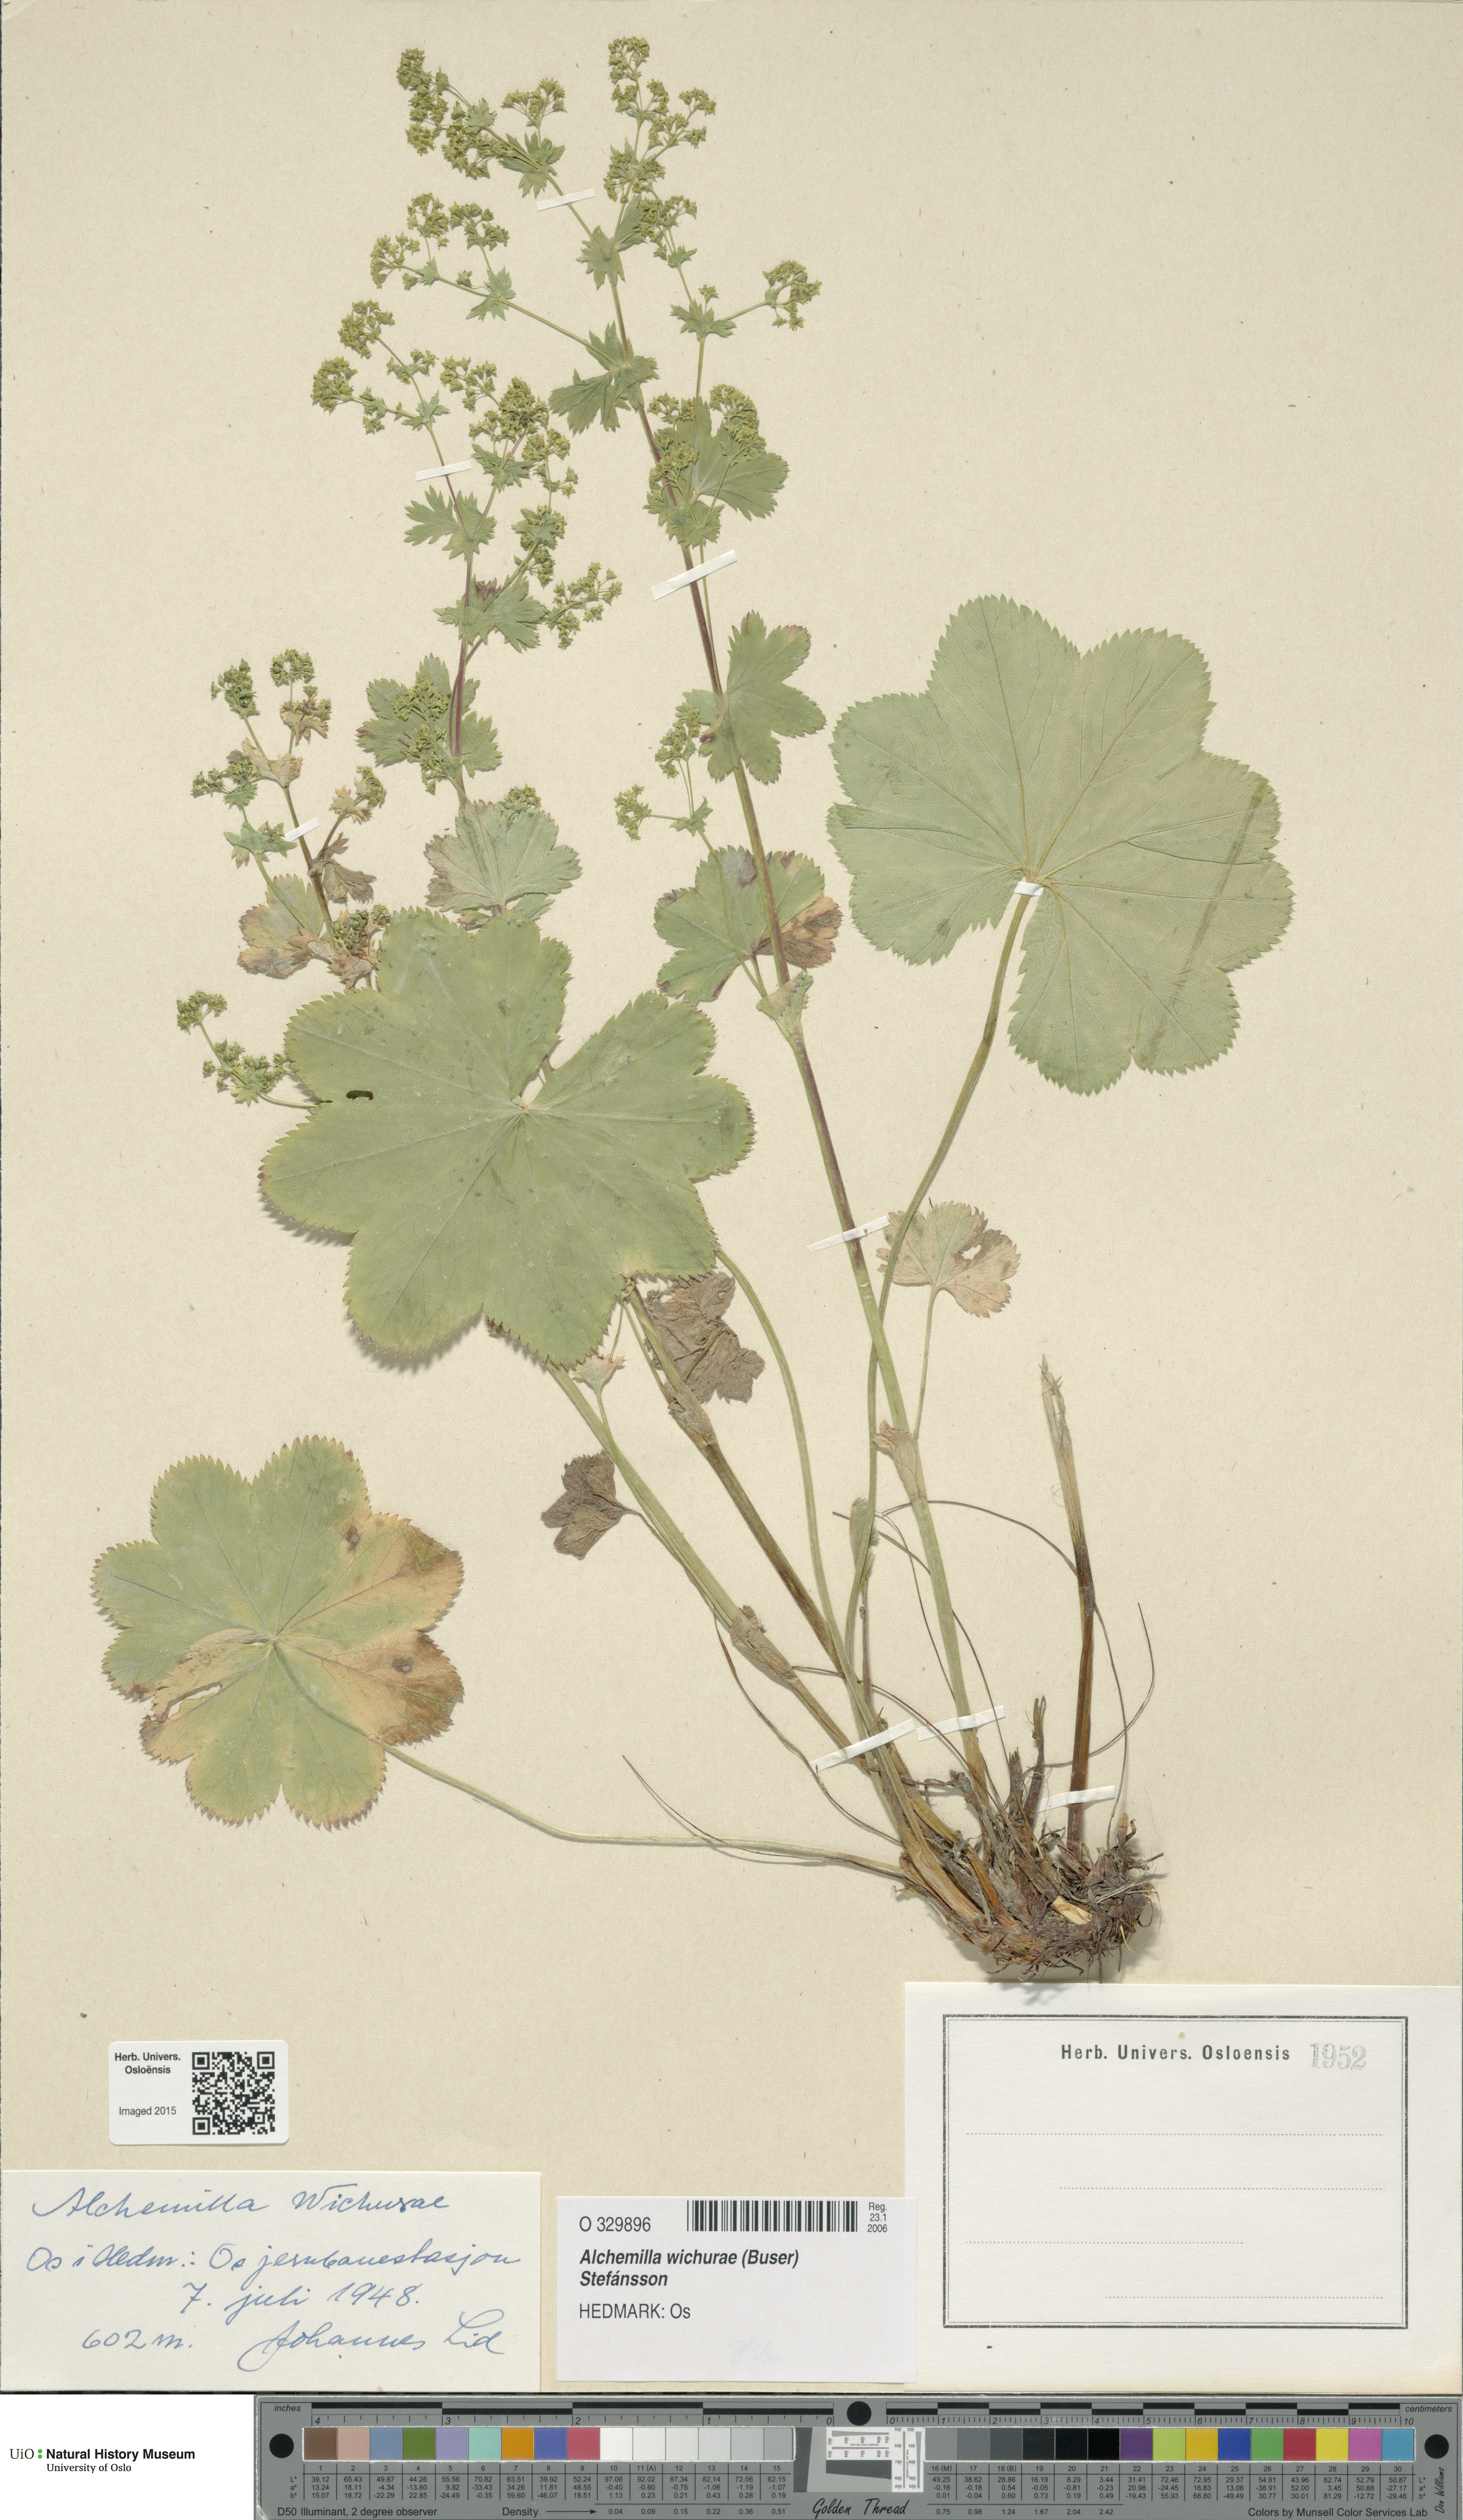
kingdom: Plantae
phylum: Tracheophyta
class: Magnoliopsida
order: Rosales
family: Rosaceae
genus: Alchemilla
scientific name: Alchemilla wichurae
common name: Rock lady's mantle
